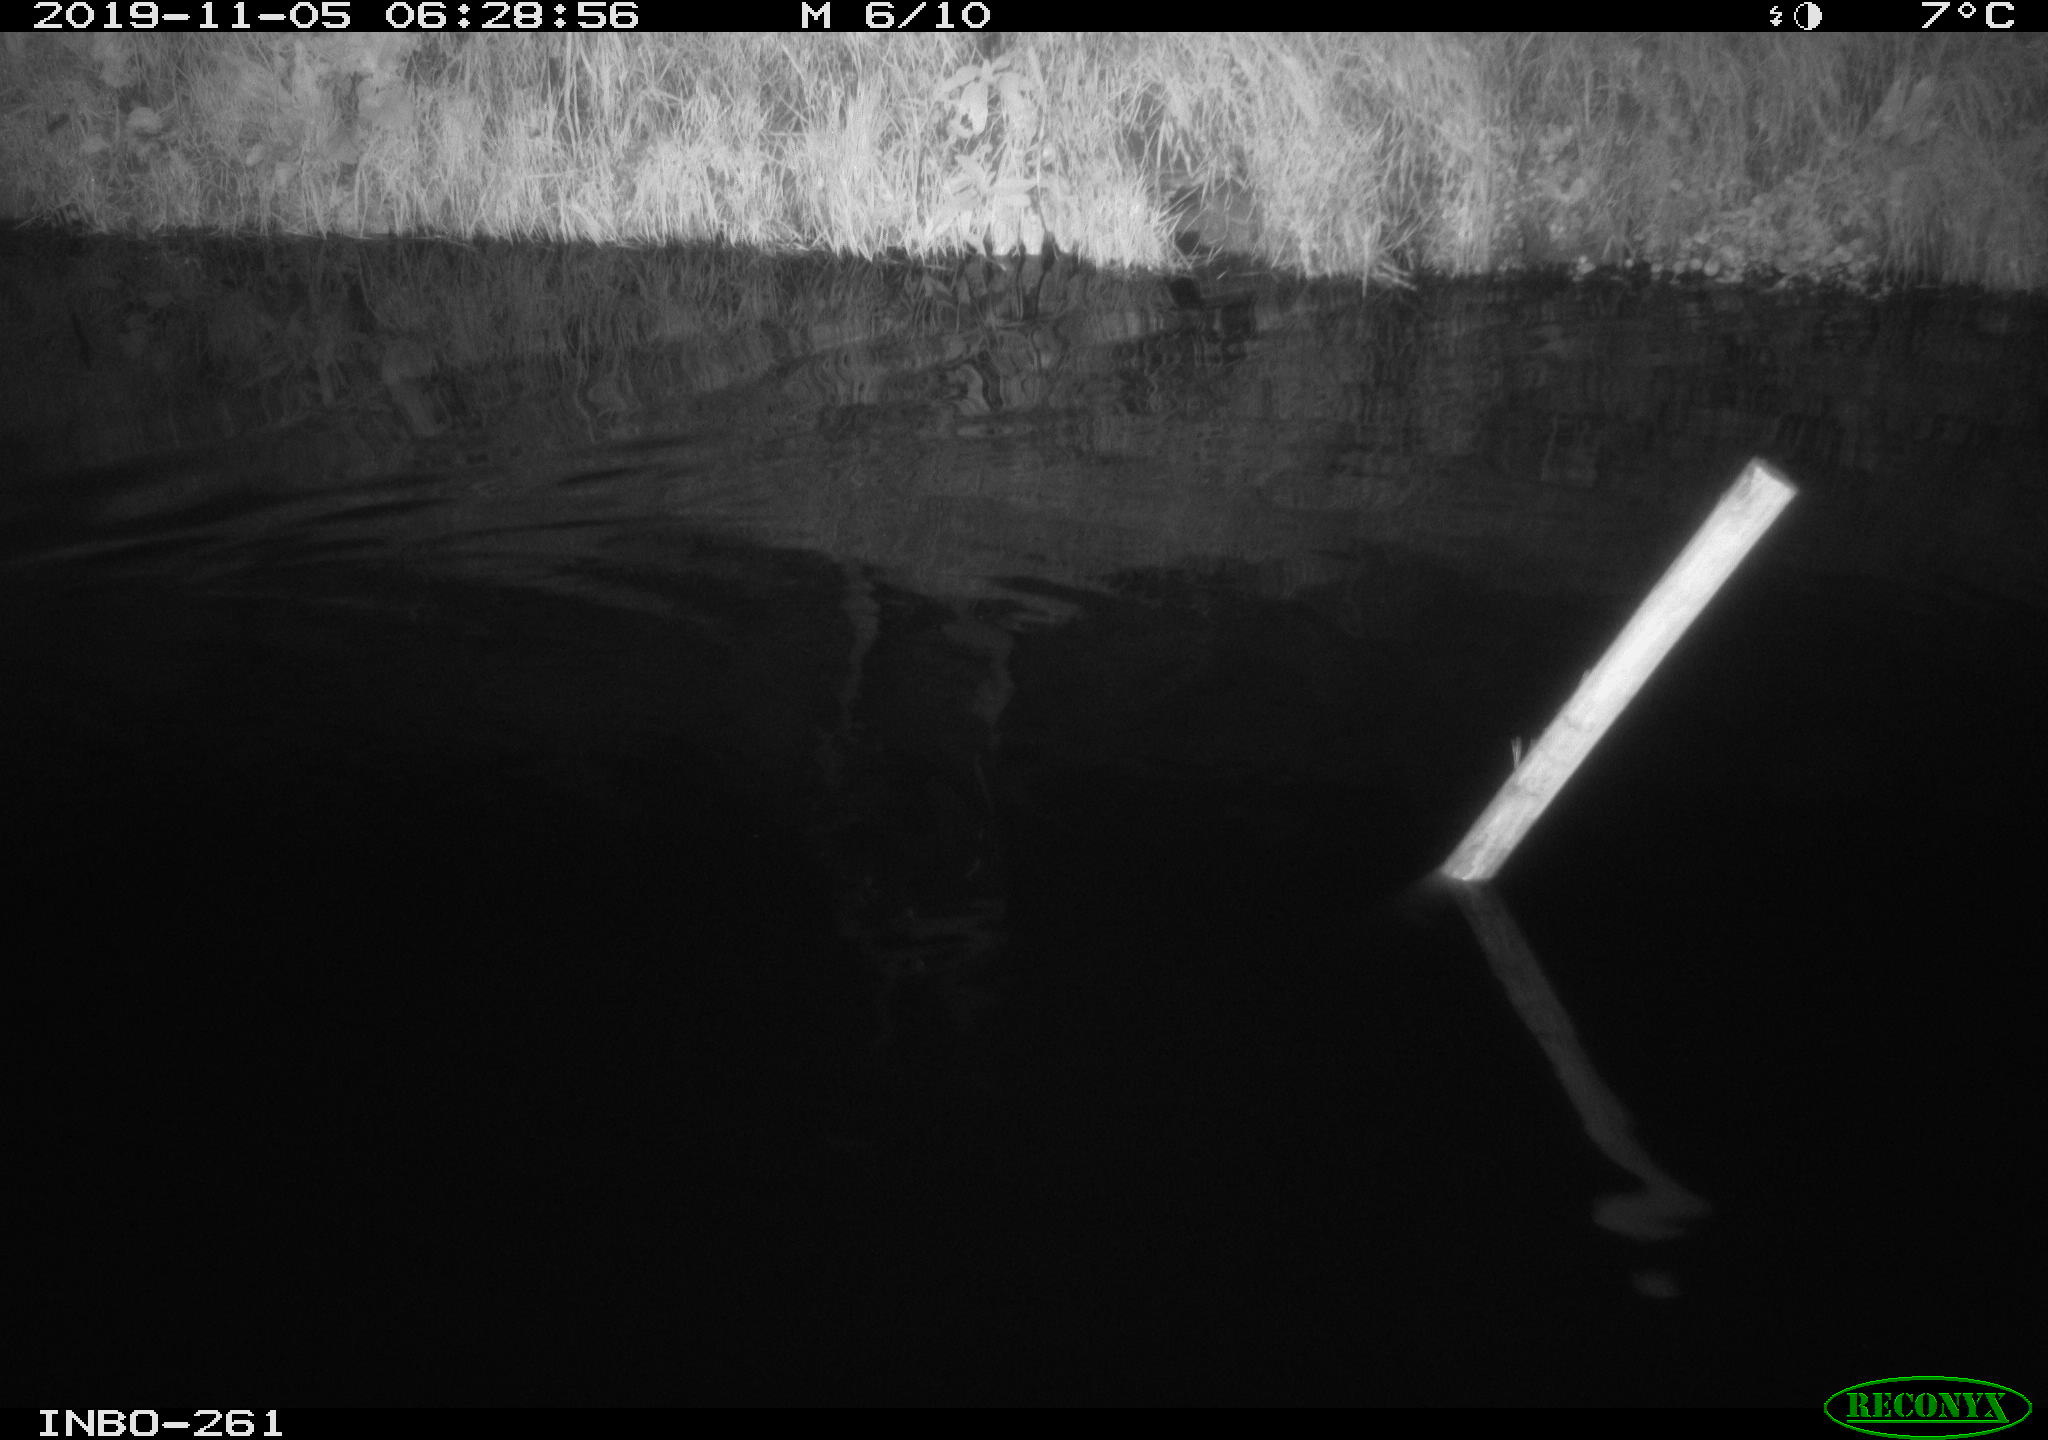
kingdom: Animalia
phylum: Chordata
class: Aves
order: Anseriformes
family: Anatidae
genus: Anas
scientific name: Anas platyrhynchos
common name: Mallard
